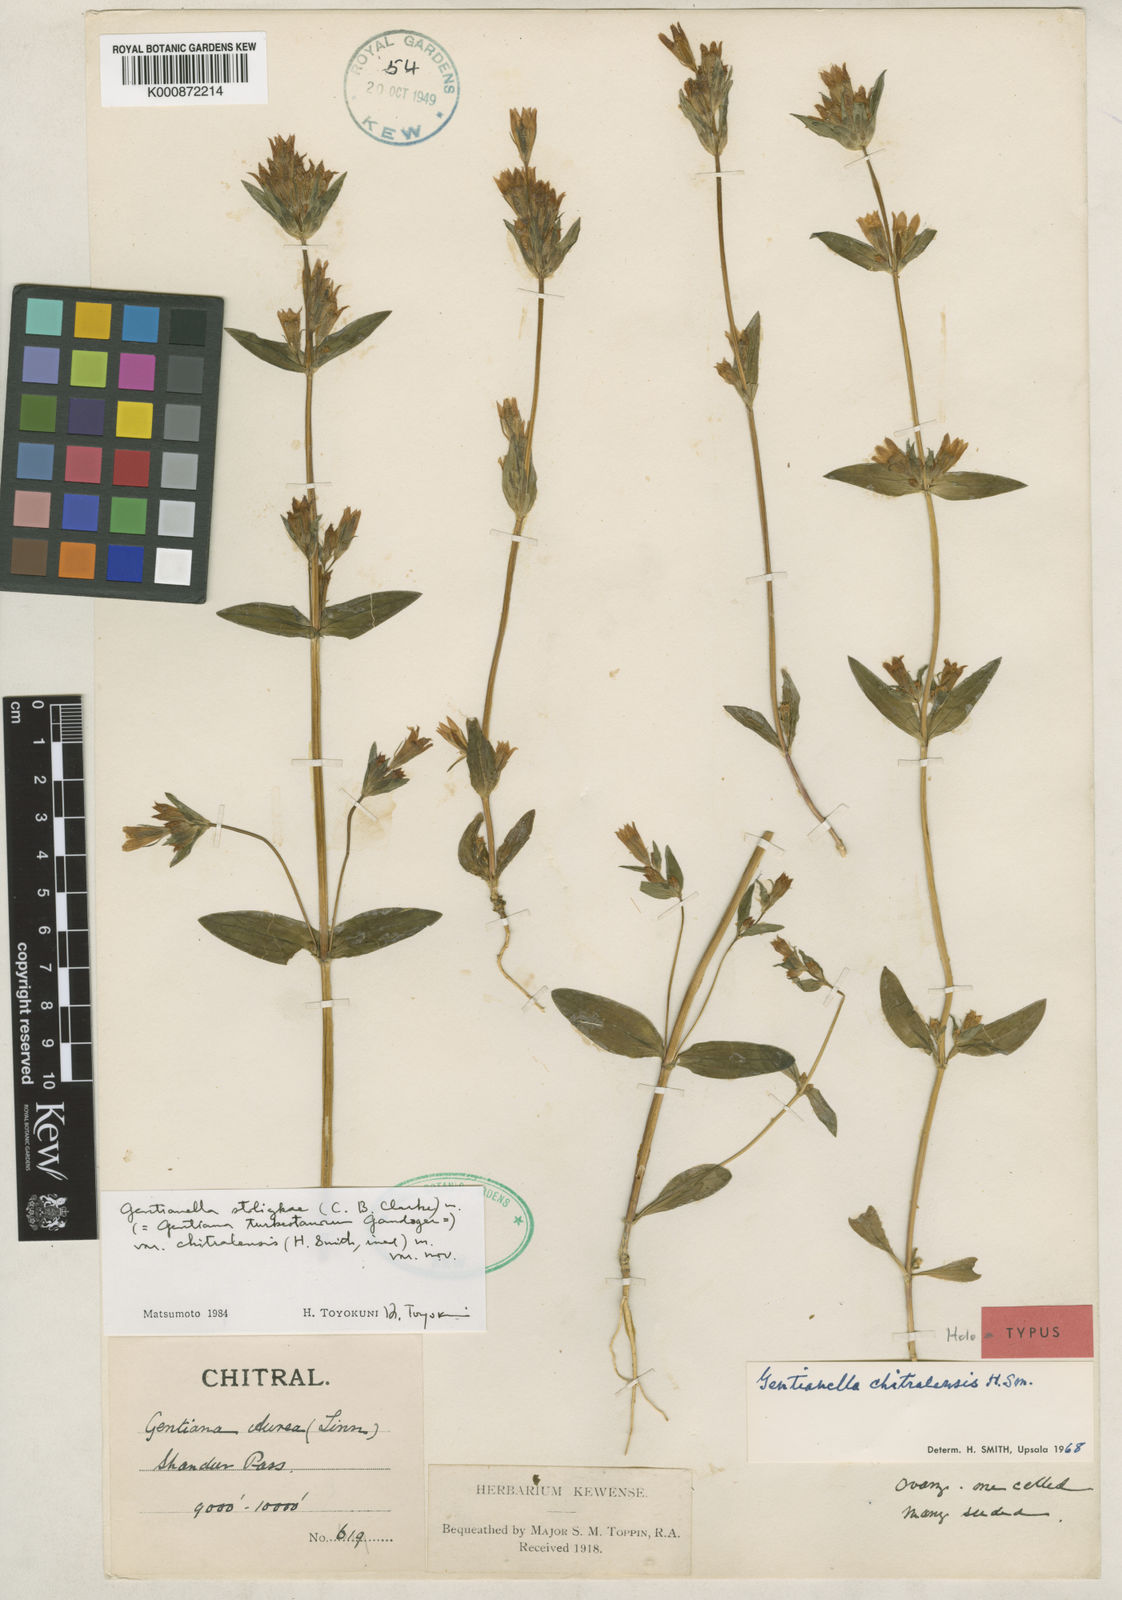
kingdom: Plantae
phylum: Tracheophyta
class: Magnoliopsida
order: Gentianales
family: Gentianaceae
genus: Gentiana
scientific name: Gentiana
